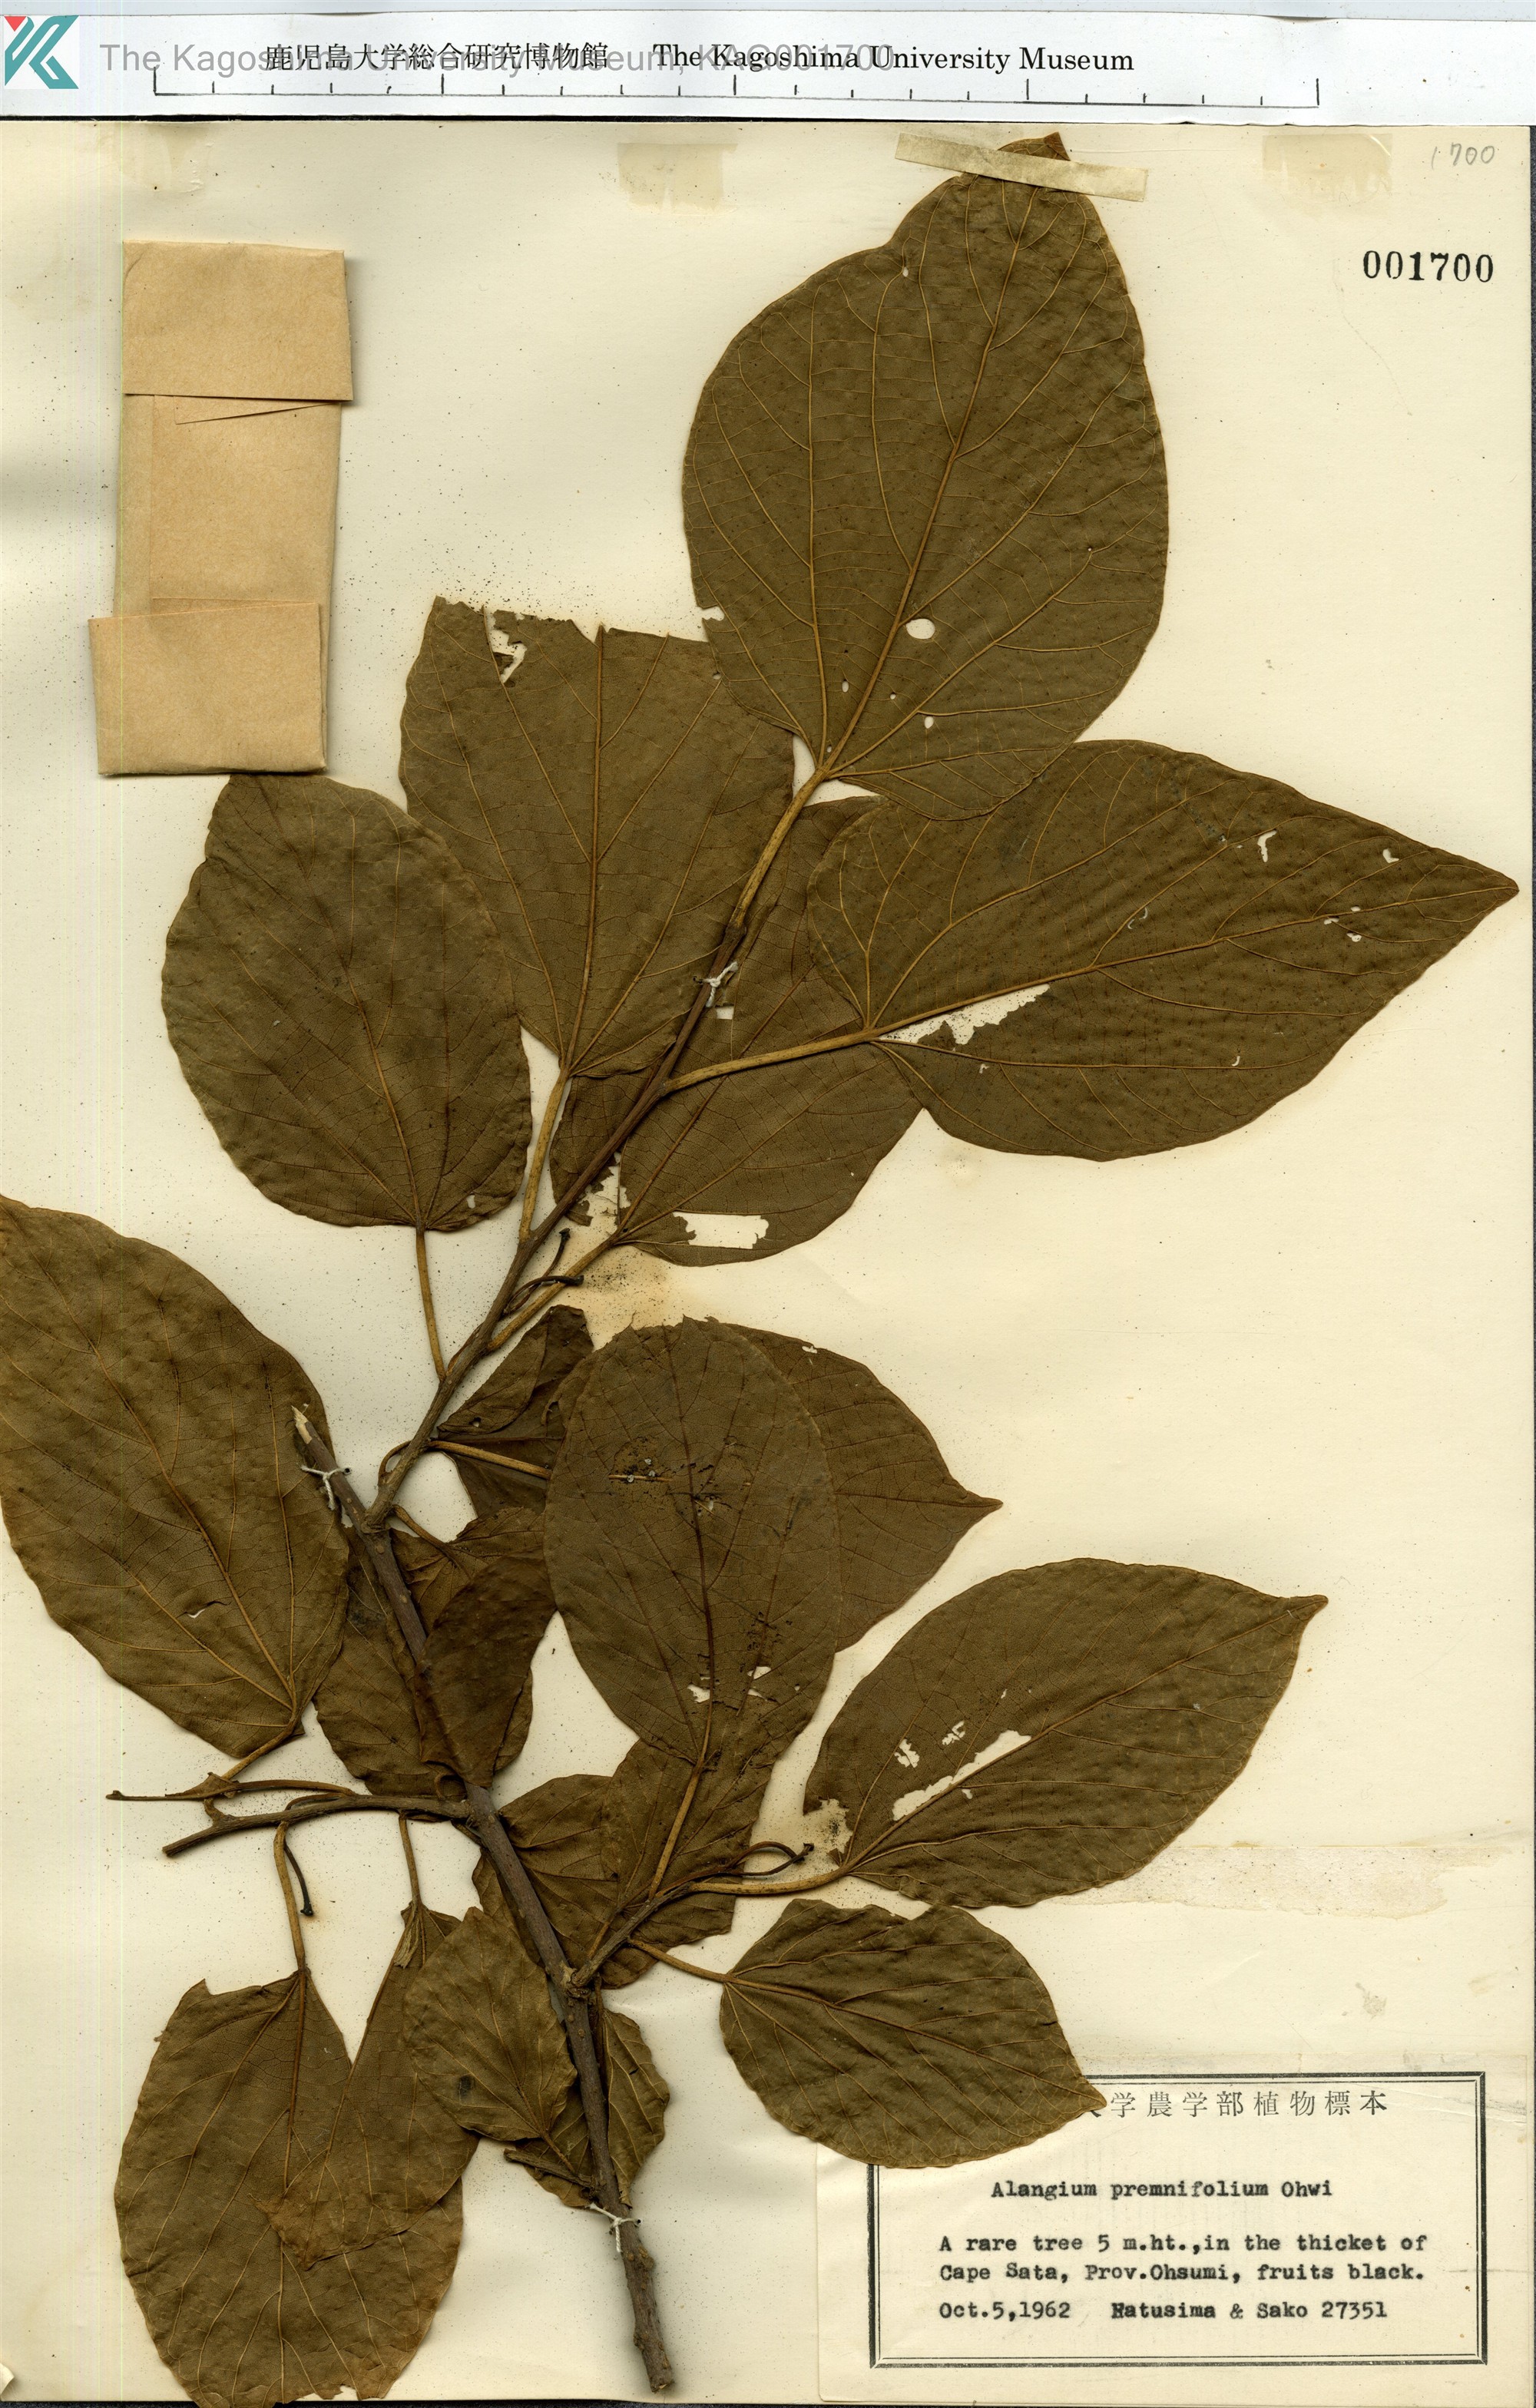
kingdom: Plantae
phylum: Tracheophyta
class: Magnoliopsida
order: Cornales
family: Cornaceae
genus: Alangium
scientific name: Alangium premnifolium
